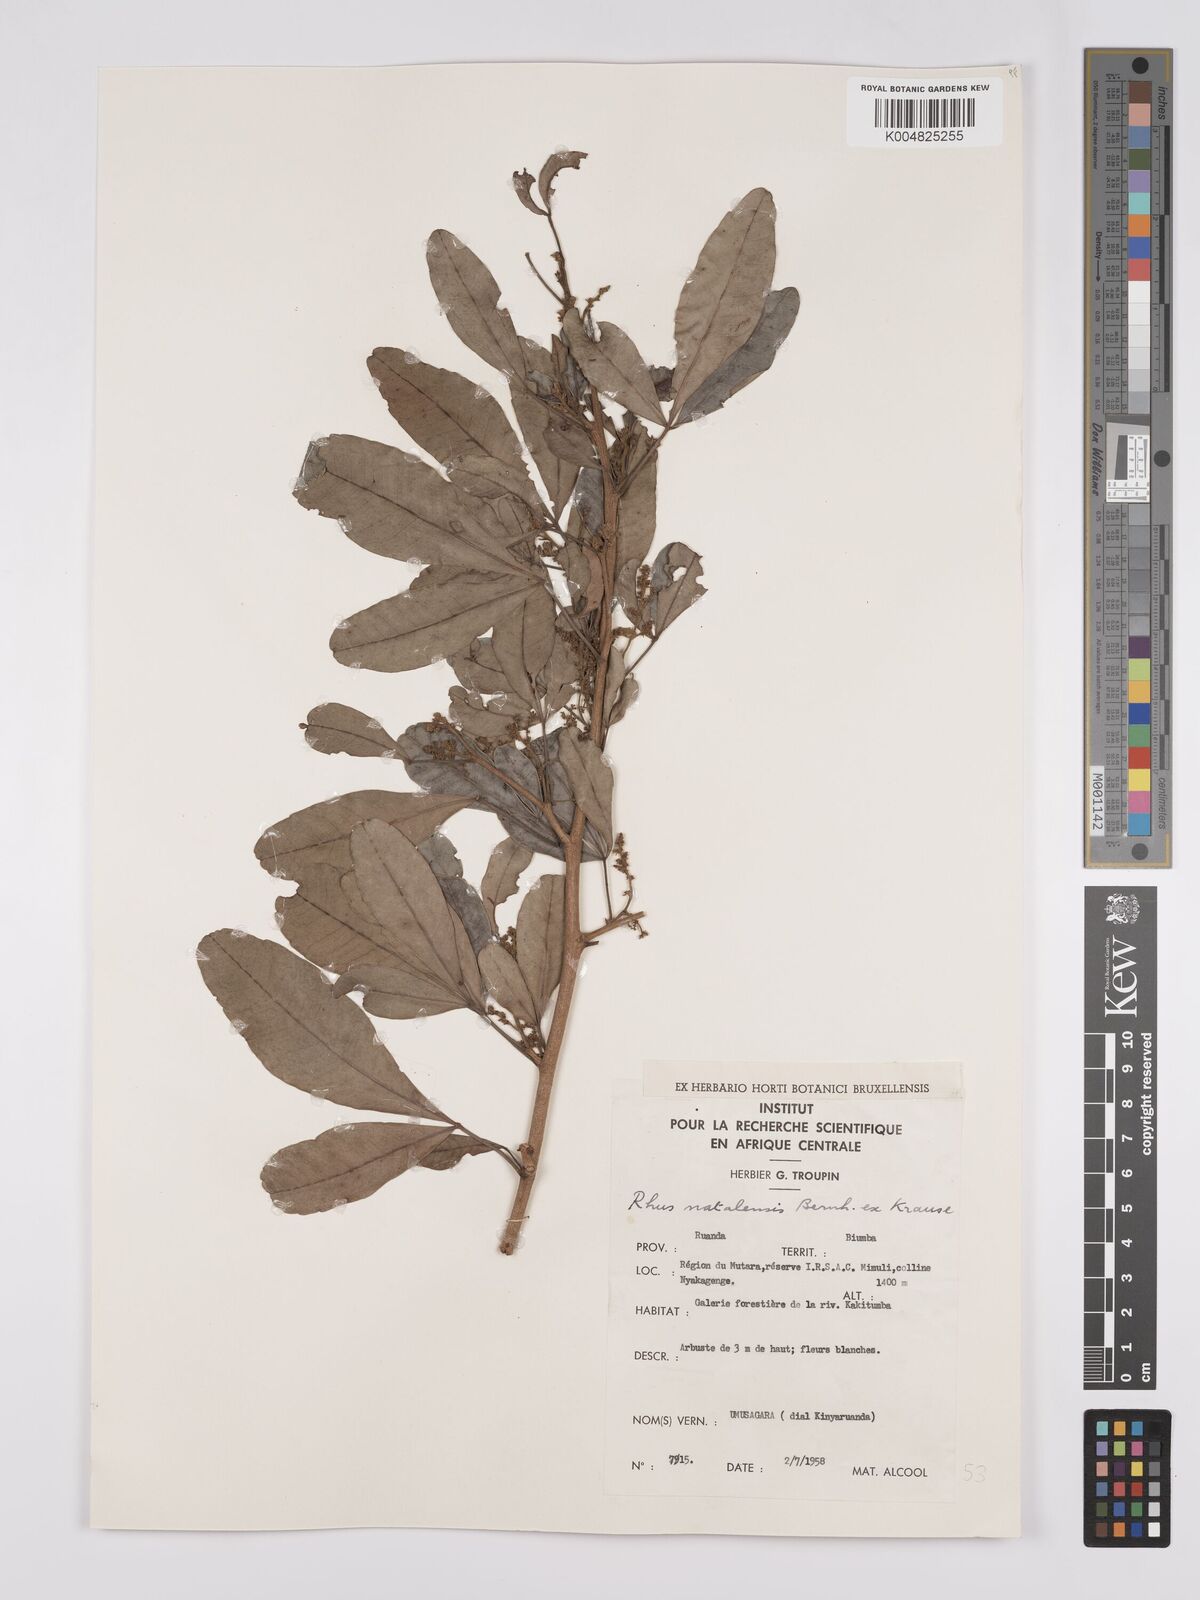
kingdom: Plantae
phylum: Tracheophyta
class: Magnoliopsida
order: Sapindales
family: Anacardiaceae
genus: Searsia
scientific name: Searsia natalensis
